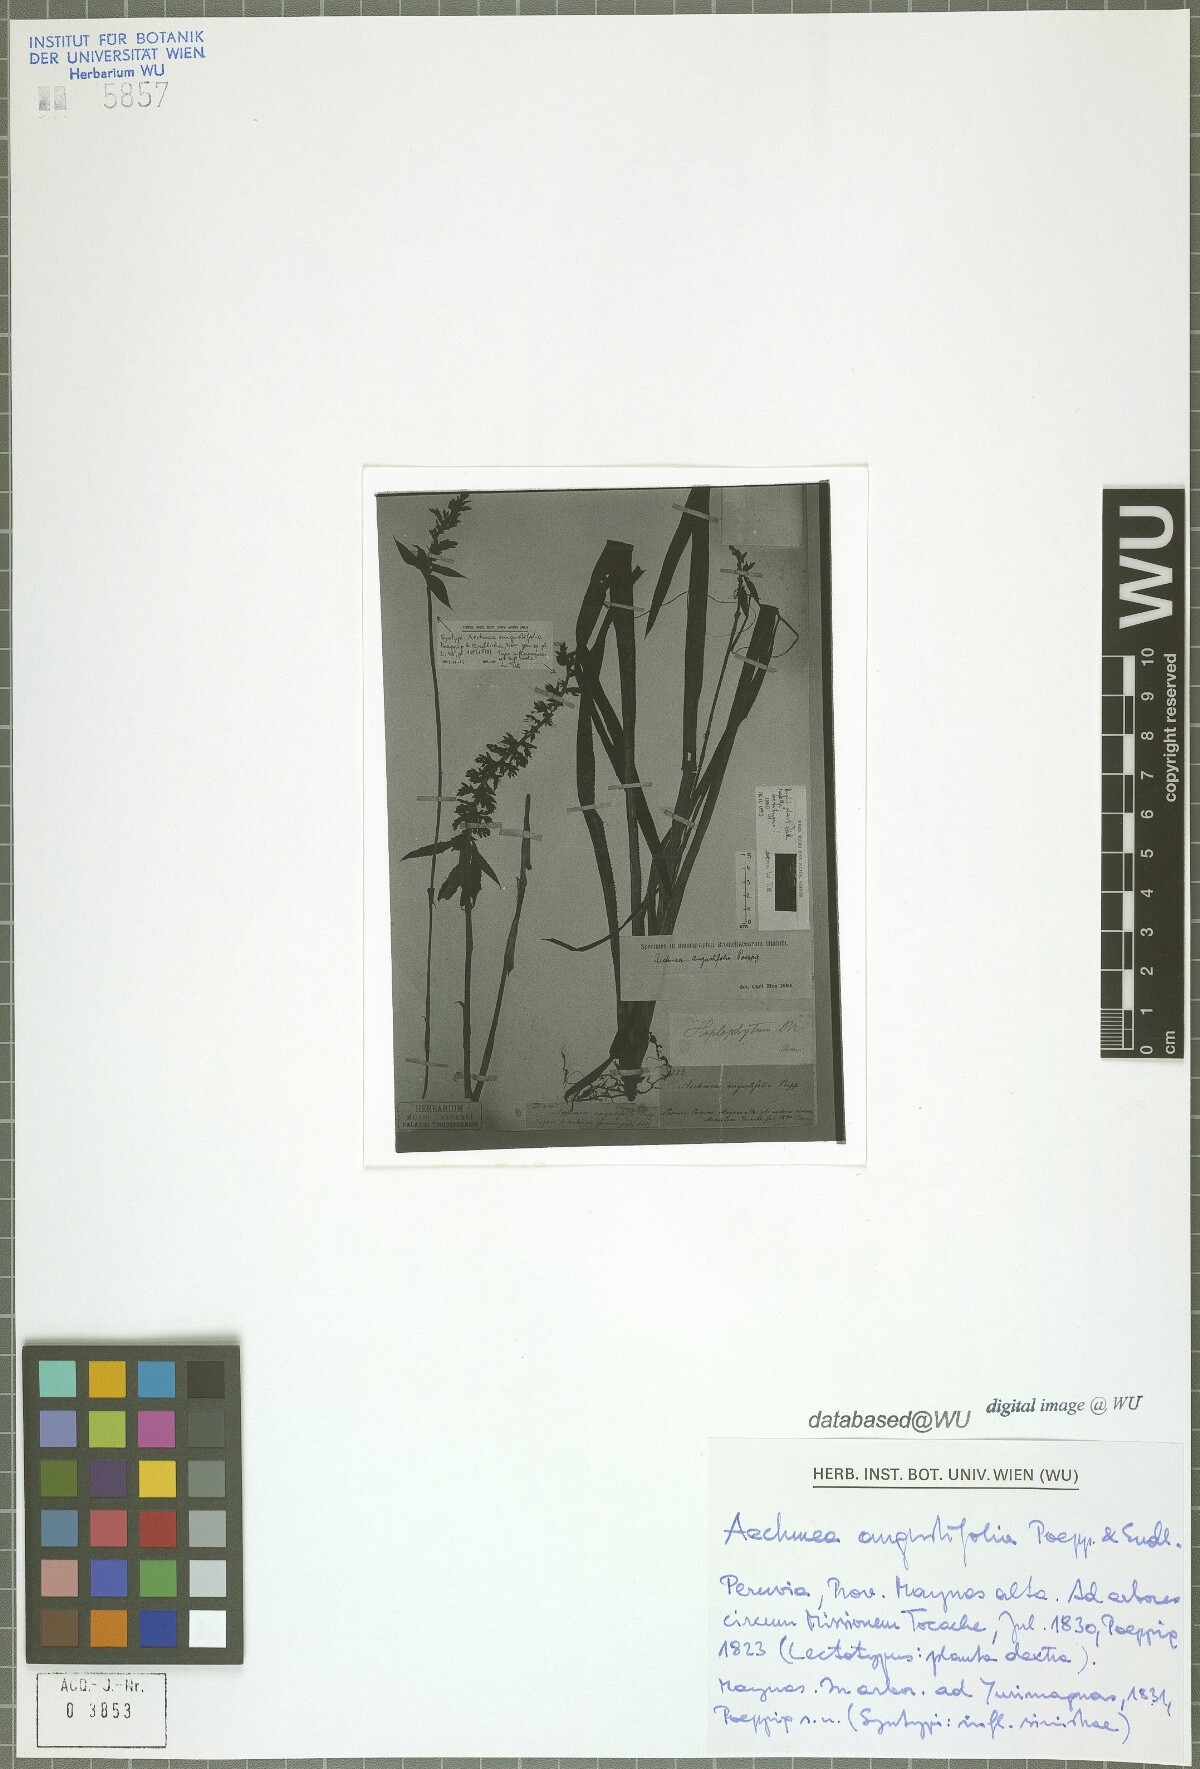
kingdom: Plantae
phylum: Tracheophyta
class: Liliopsida
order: Poales
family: Bromeliaceae
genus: Aechmea
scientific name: Aechmea angustifolia
